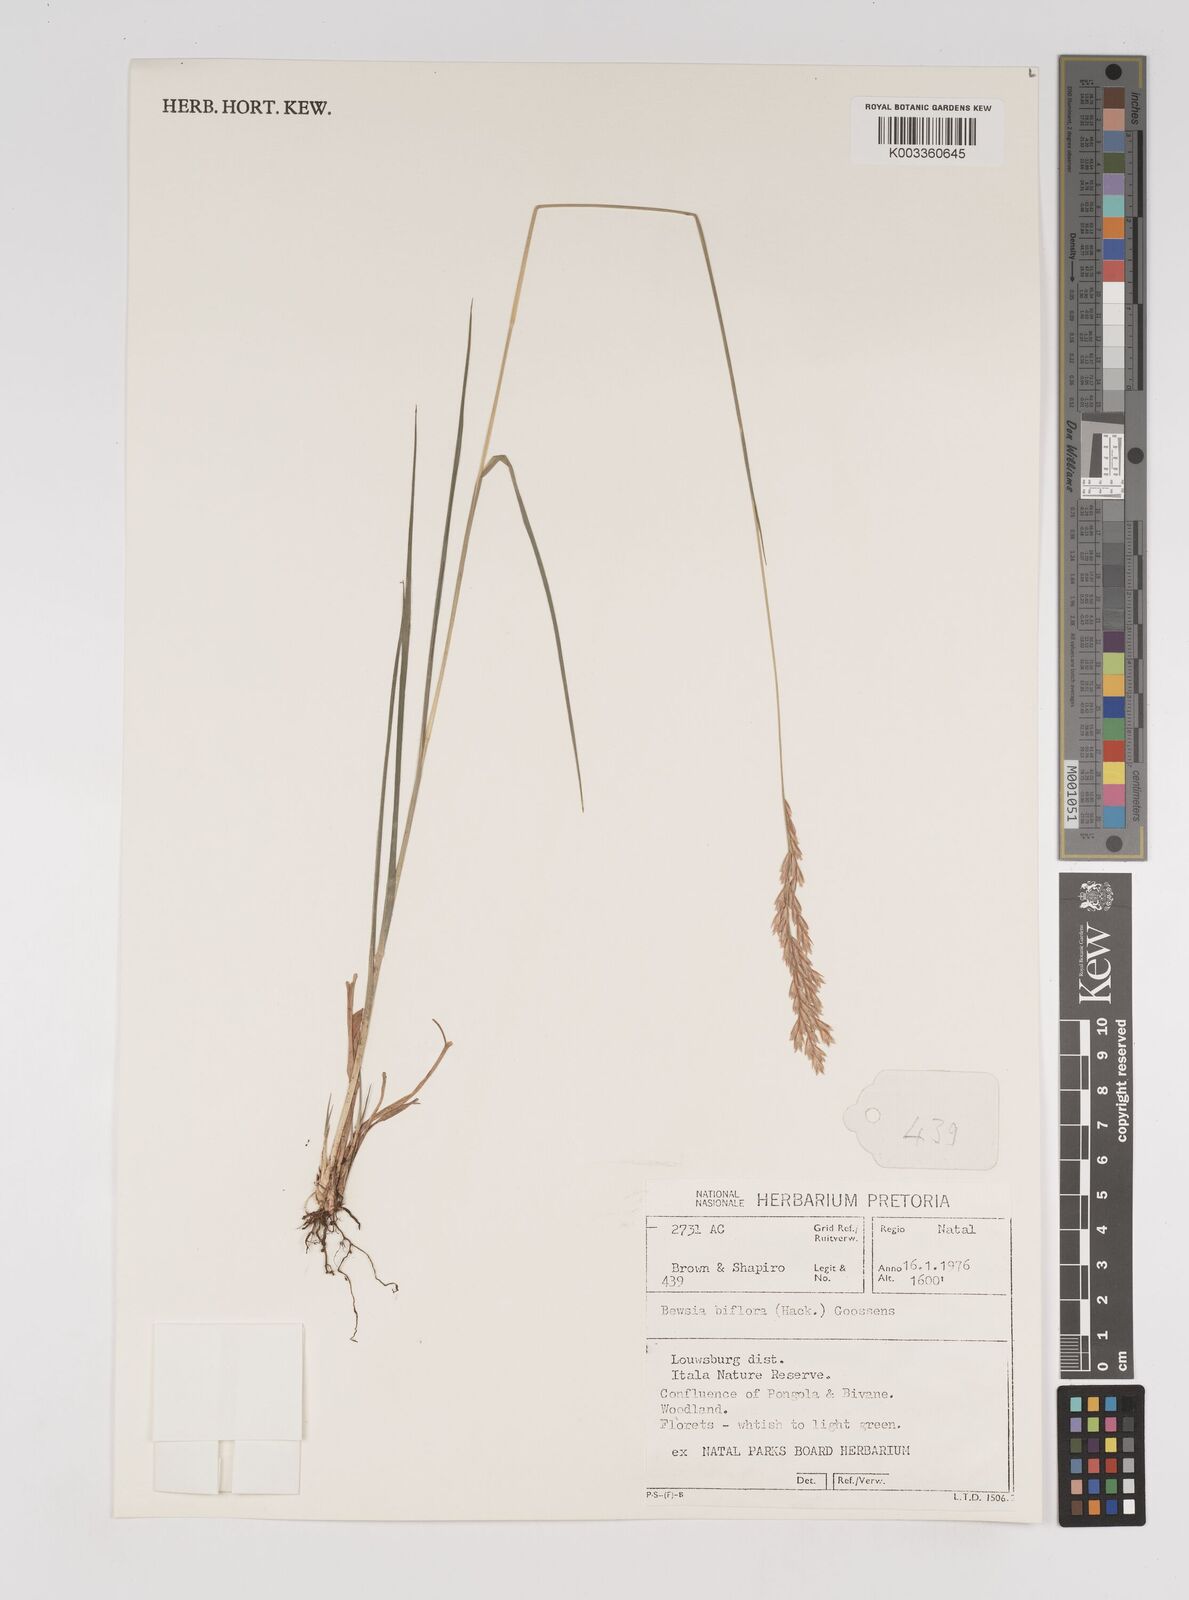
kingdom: Plantae
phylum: Tracheophyta
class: Liliopsida
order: Poales
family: Poaceae
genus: Bewsia
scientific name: Bewsia biflora
